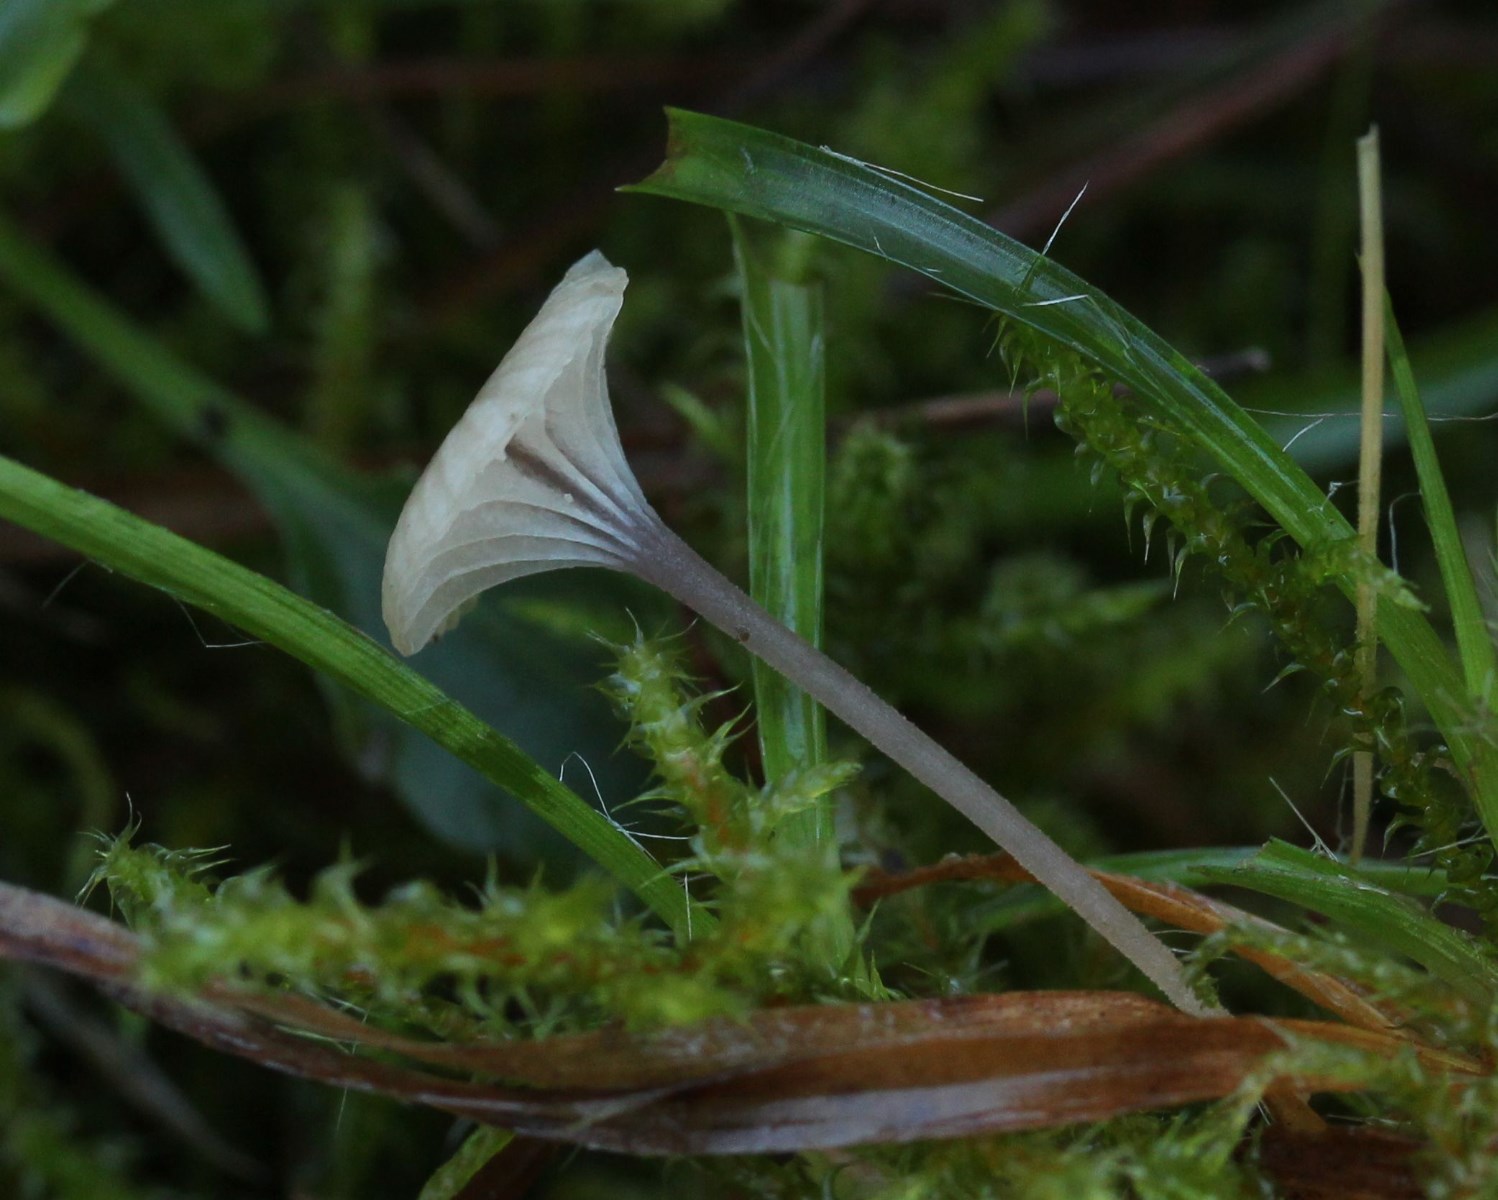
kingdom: Fungi
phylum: Basidiomycota
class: Agaricomycetes
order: Hymenochaetales
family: Rickenellaceae
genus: Rickenella
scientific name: Rickenella swartzii
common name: finstokket mosnavlehat
